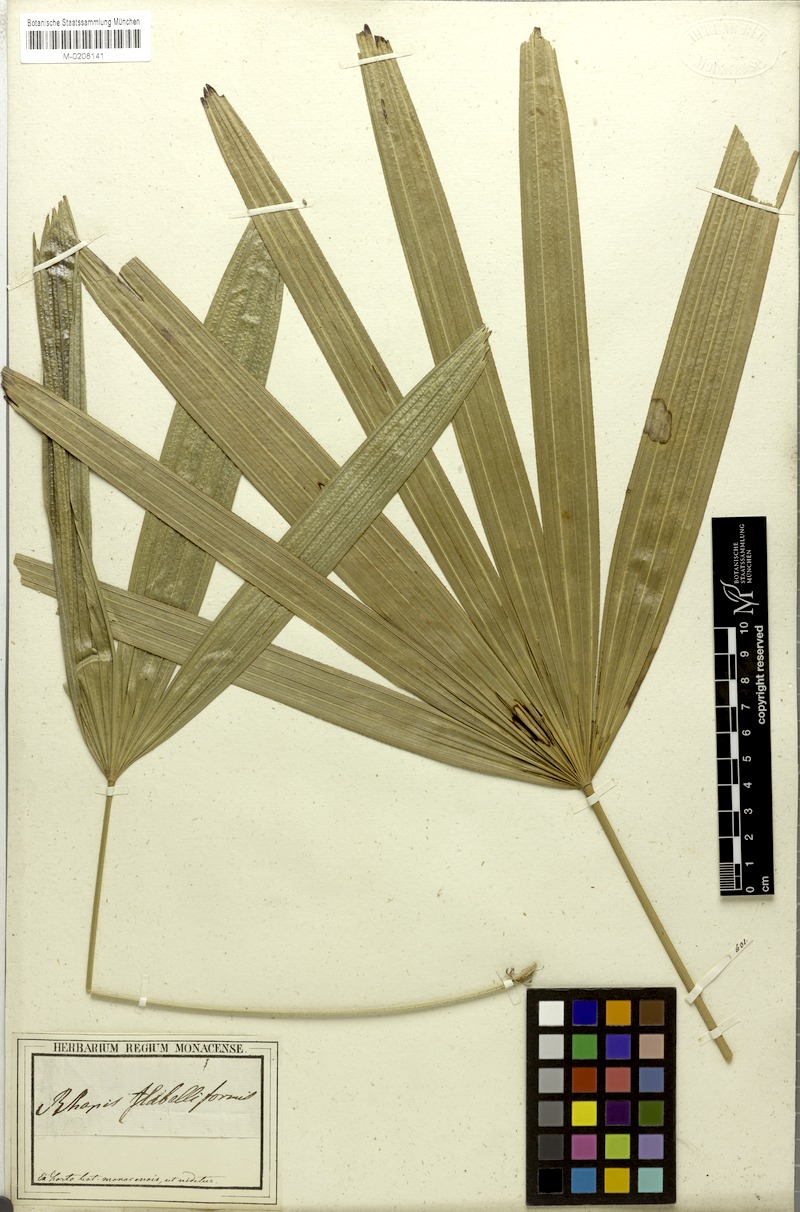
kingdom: Plantae
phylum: Tracheophyta
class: Liliopsida
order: Arecales
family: Arecaceae
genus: Rhapis
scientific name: Rhapis excelsa
